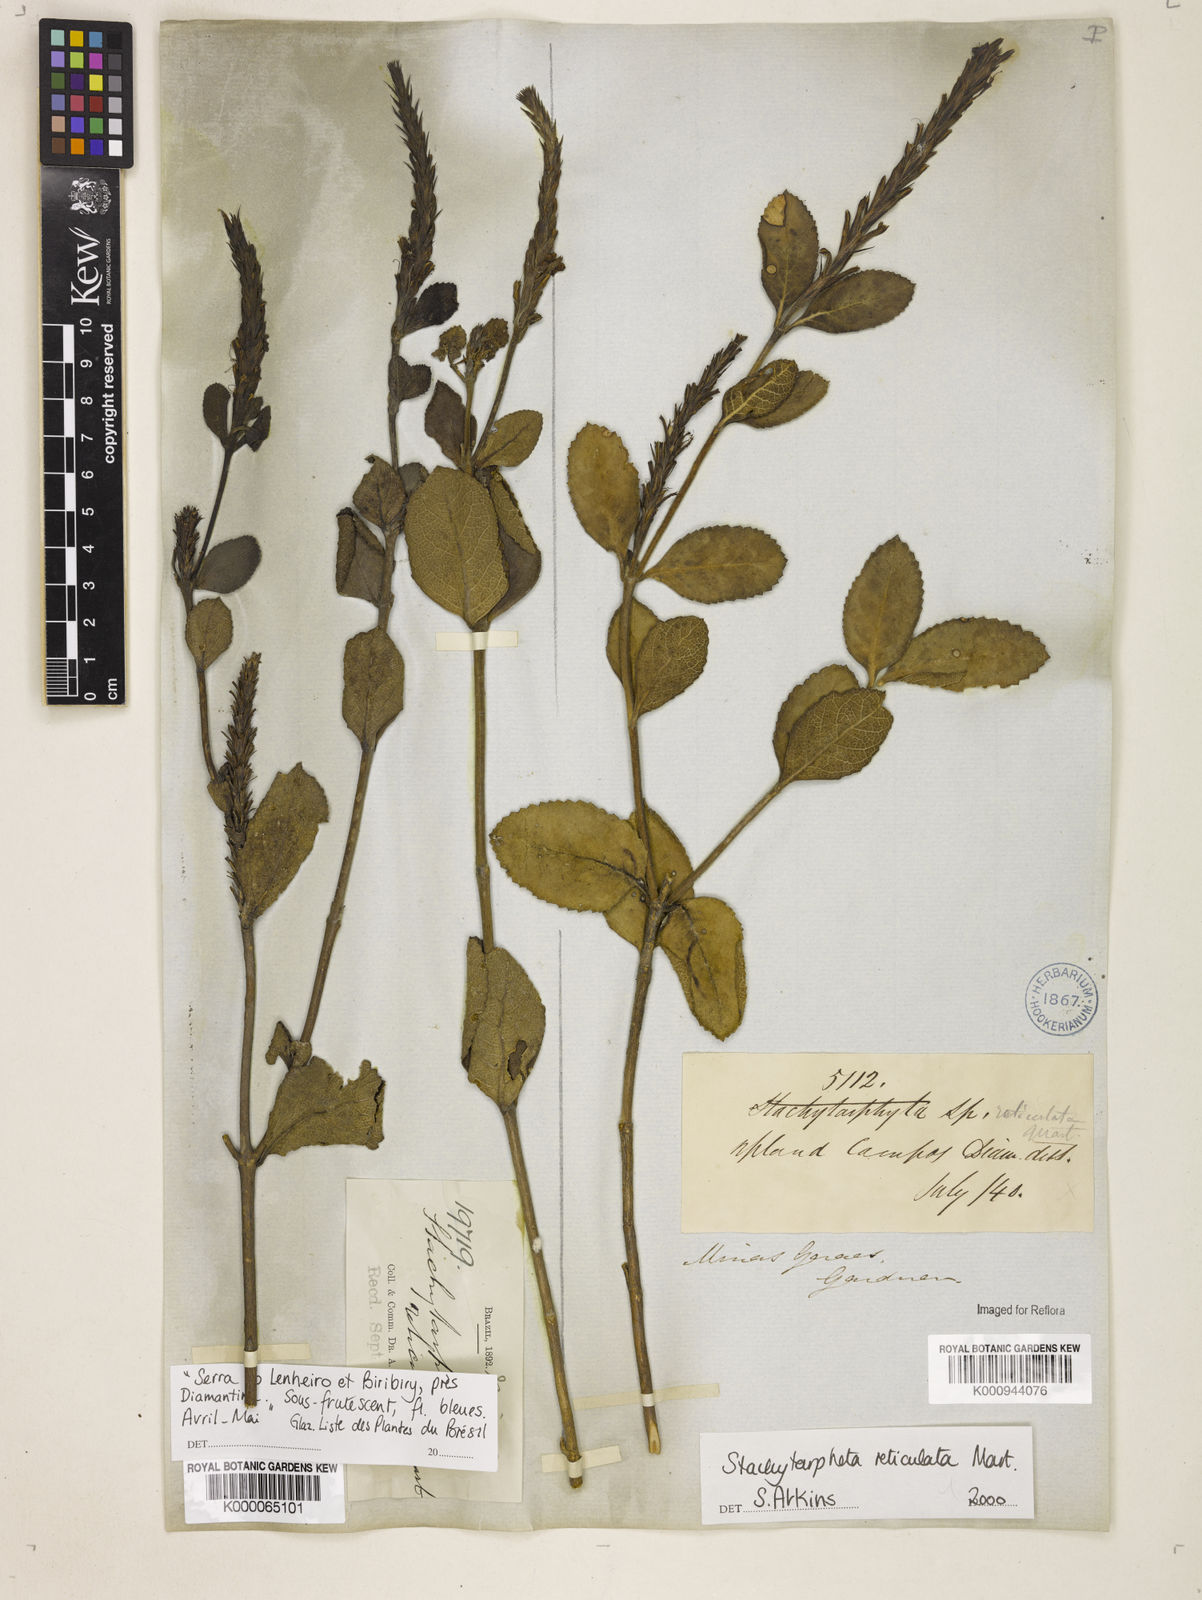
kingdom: Plantae
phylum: Tracheophyta
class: Magnoliopsida
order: Lamiales
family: Verbenaceae
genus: Stachytarpheta
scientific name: Stachytarpheta
